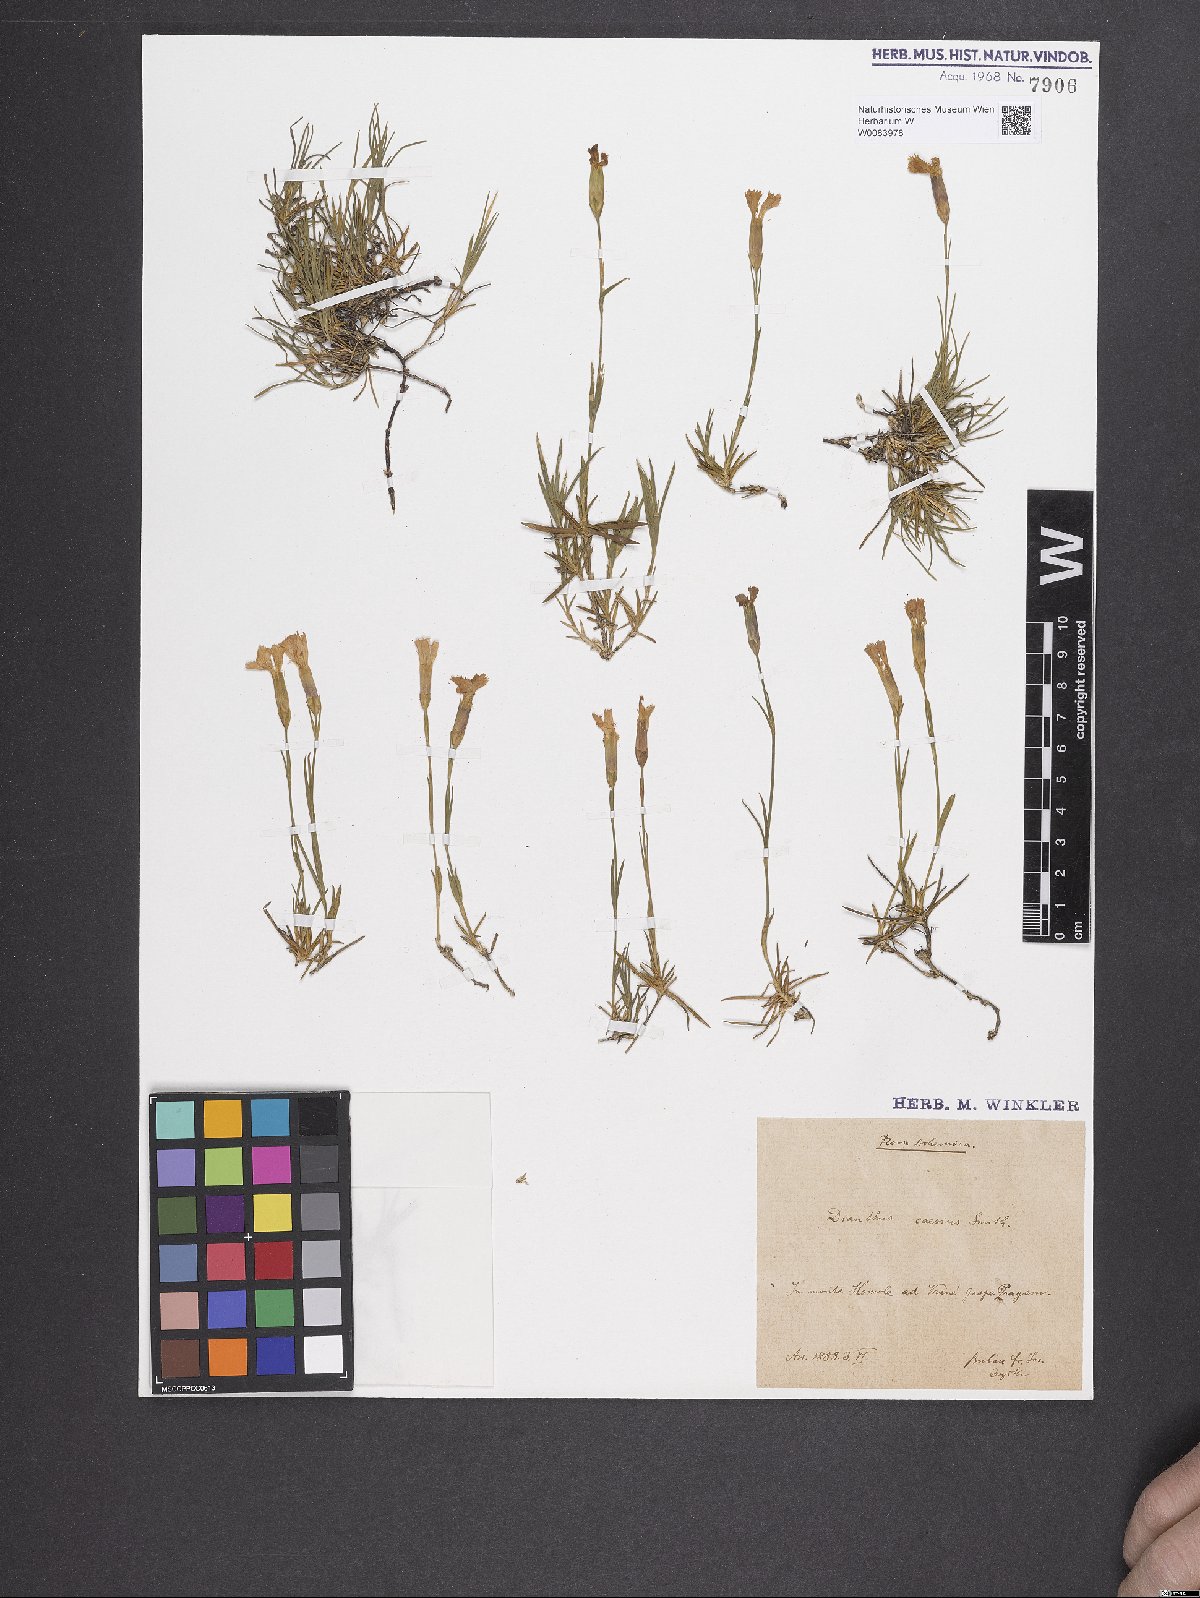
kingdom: Plantae
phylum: Tracheophyta
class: Magnoliopsida
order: Caryophyllales
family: Caryophyllaceae
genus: Dianthus
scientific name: Dianthus gratianopolitanus
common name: Cheddar pink
